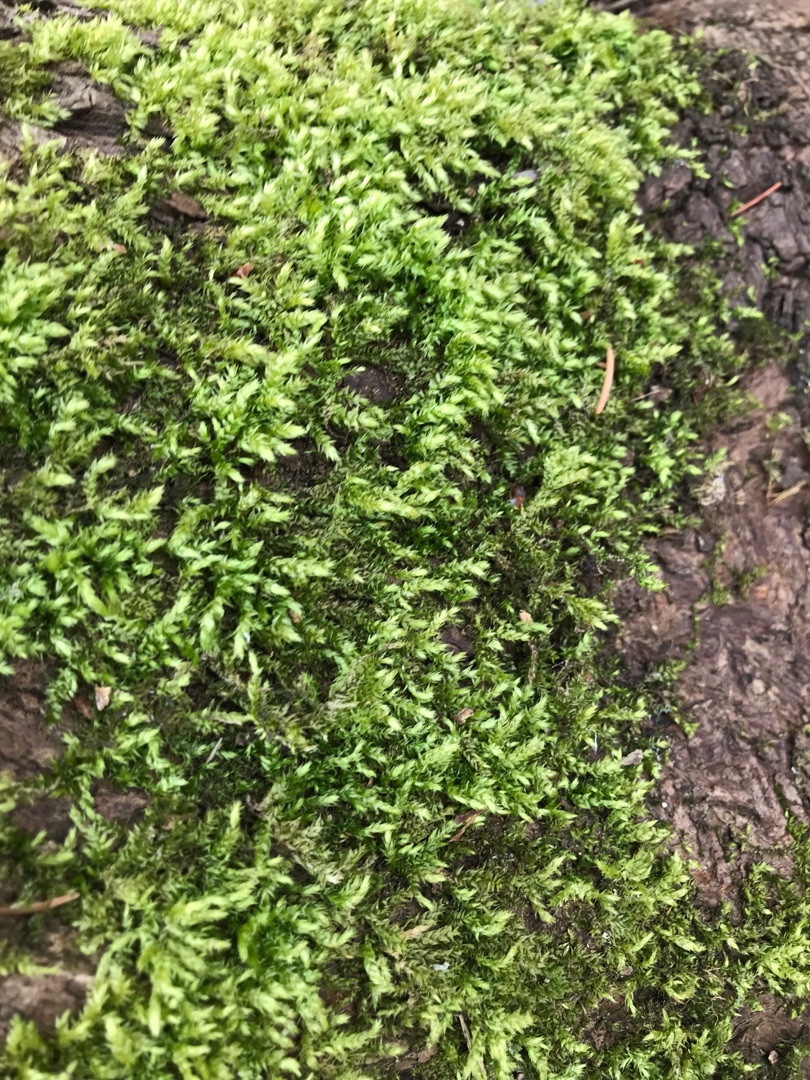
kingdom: Plantae
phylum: Bryophyta
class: Bryopsida
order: Hypnales
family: Brachytheciaceae
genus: Brachythecium
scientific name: Brachythecium rutabulum
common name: Almindelig kortkapsel
